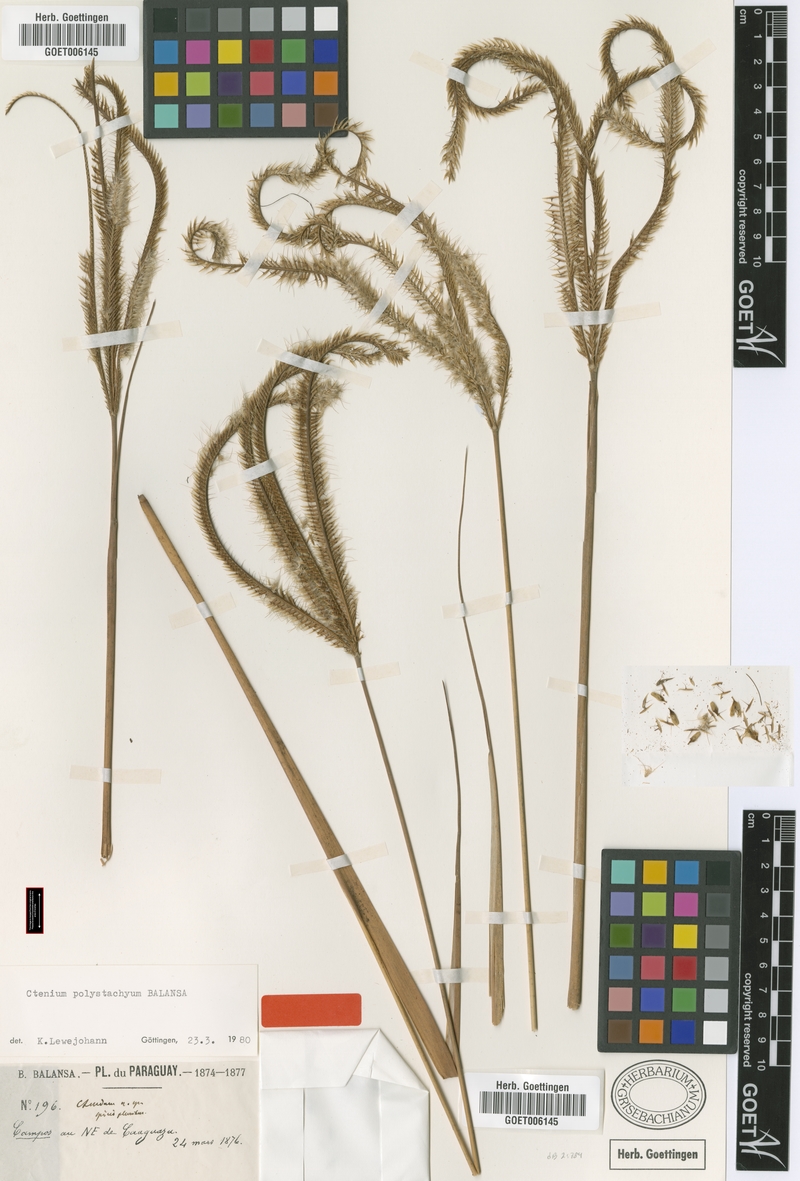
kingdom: Plantae
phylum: Tracheophyta
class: Liliopsida
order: Poales
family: Poaceae
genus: Ctenium
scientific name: Ctenium polystachyum
